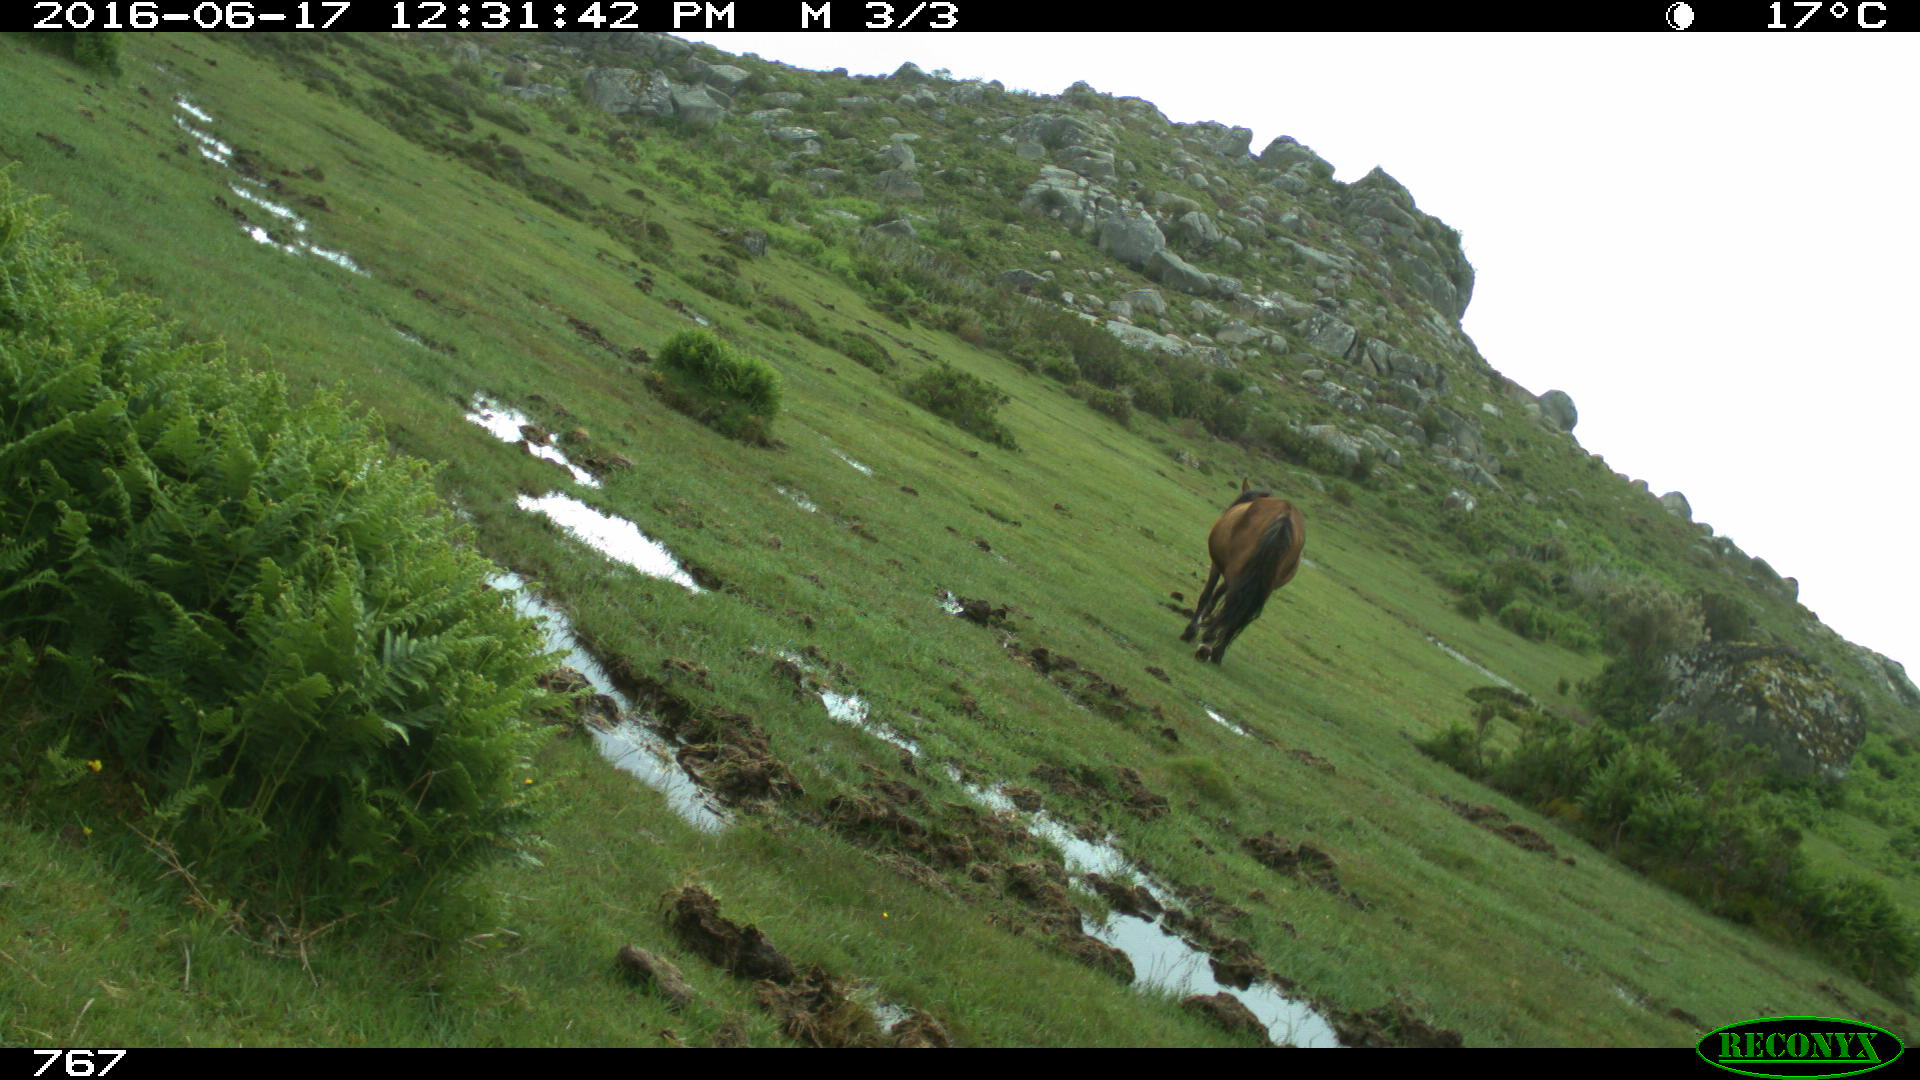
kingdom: Animalia
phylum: Chordata
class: Mammalia
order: Perissodactyla
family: Equidae
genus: Equus
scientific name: Equus caballus
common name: Horse
